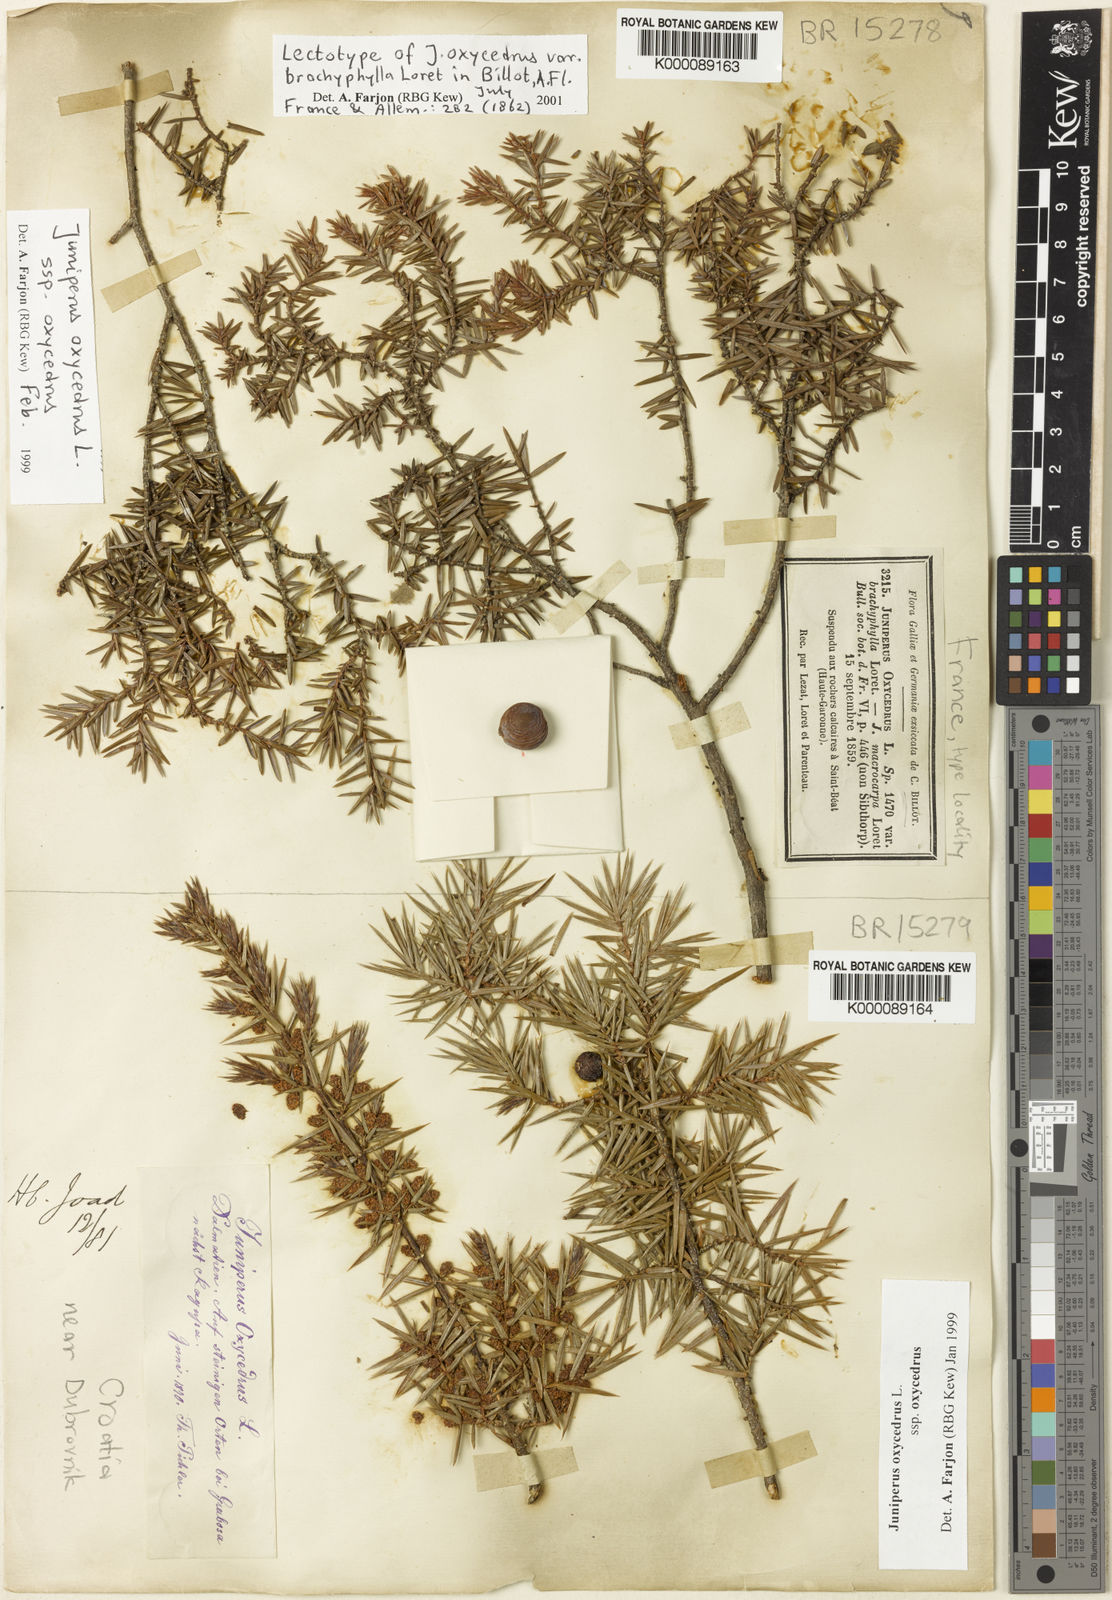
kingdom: Plantae
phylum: Tracheophyta
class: Pinopsida
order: Pinales
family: Cupressaceae
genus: Juniperus
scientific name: Juniperus oxycedrus
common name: Prickly juniper
